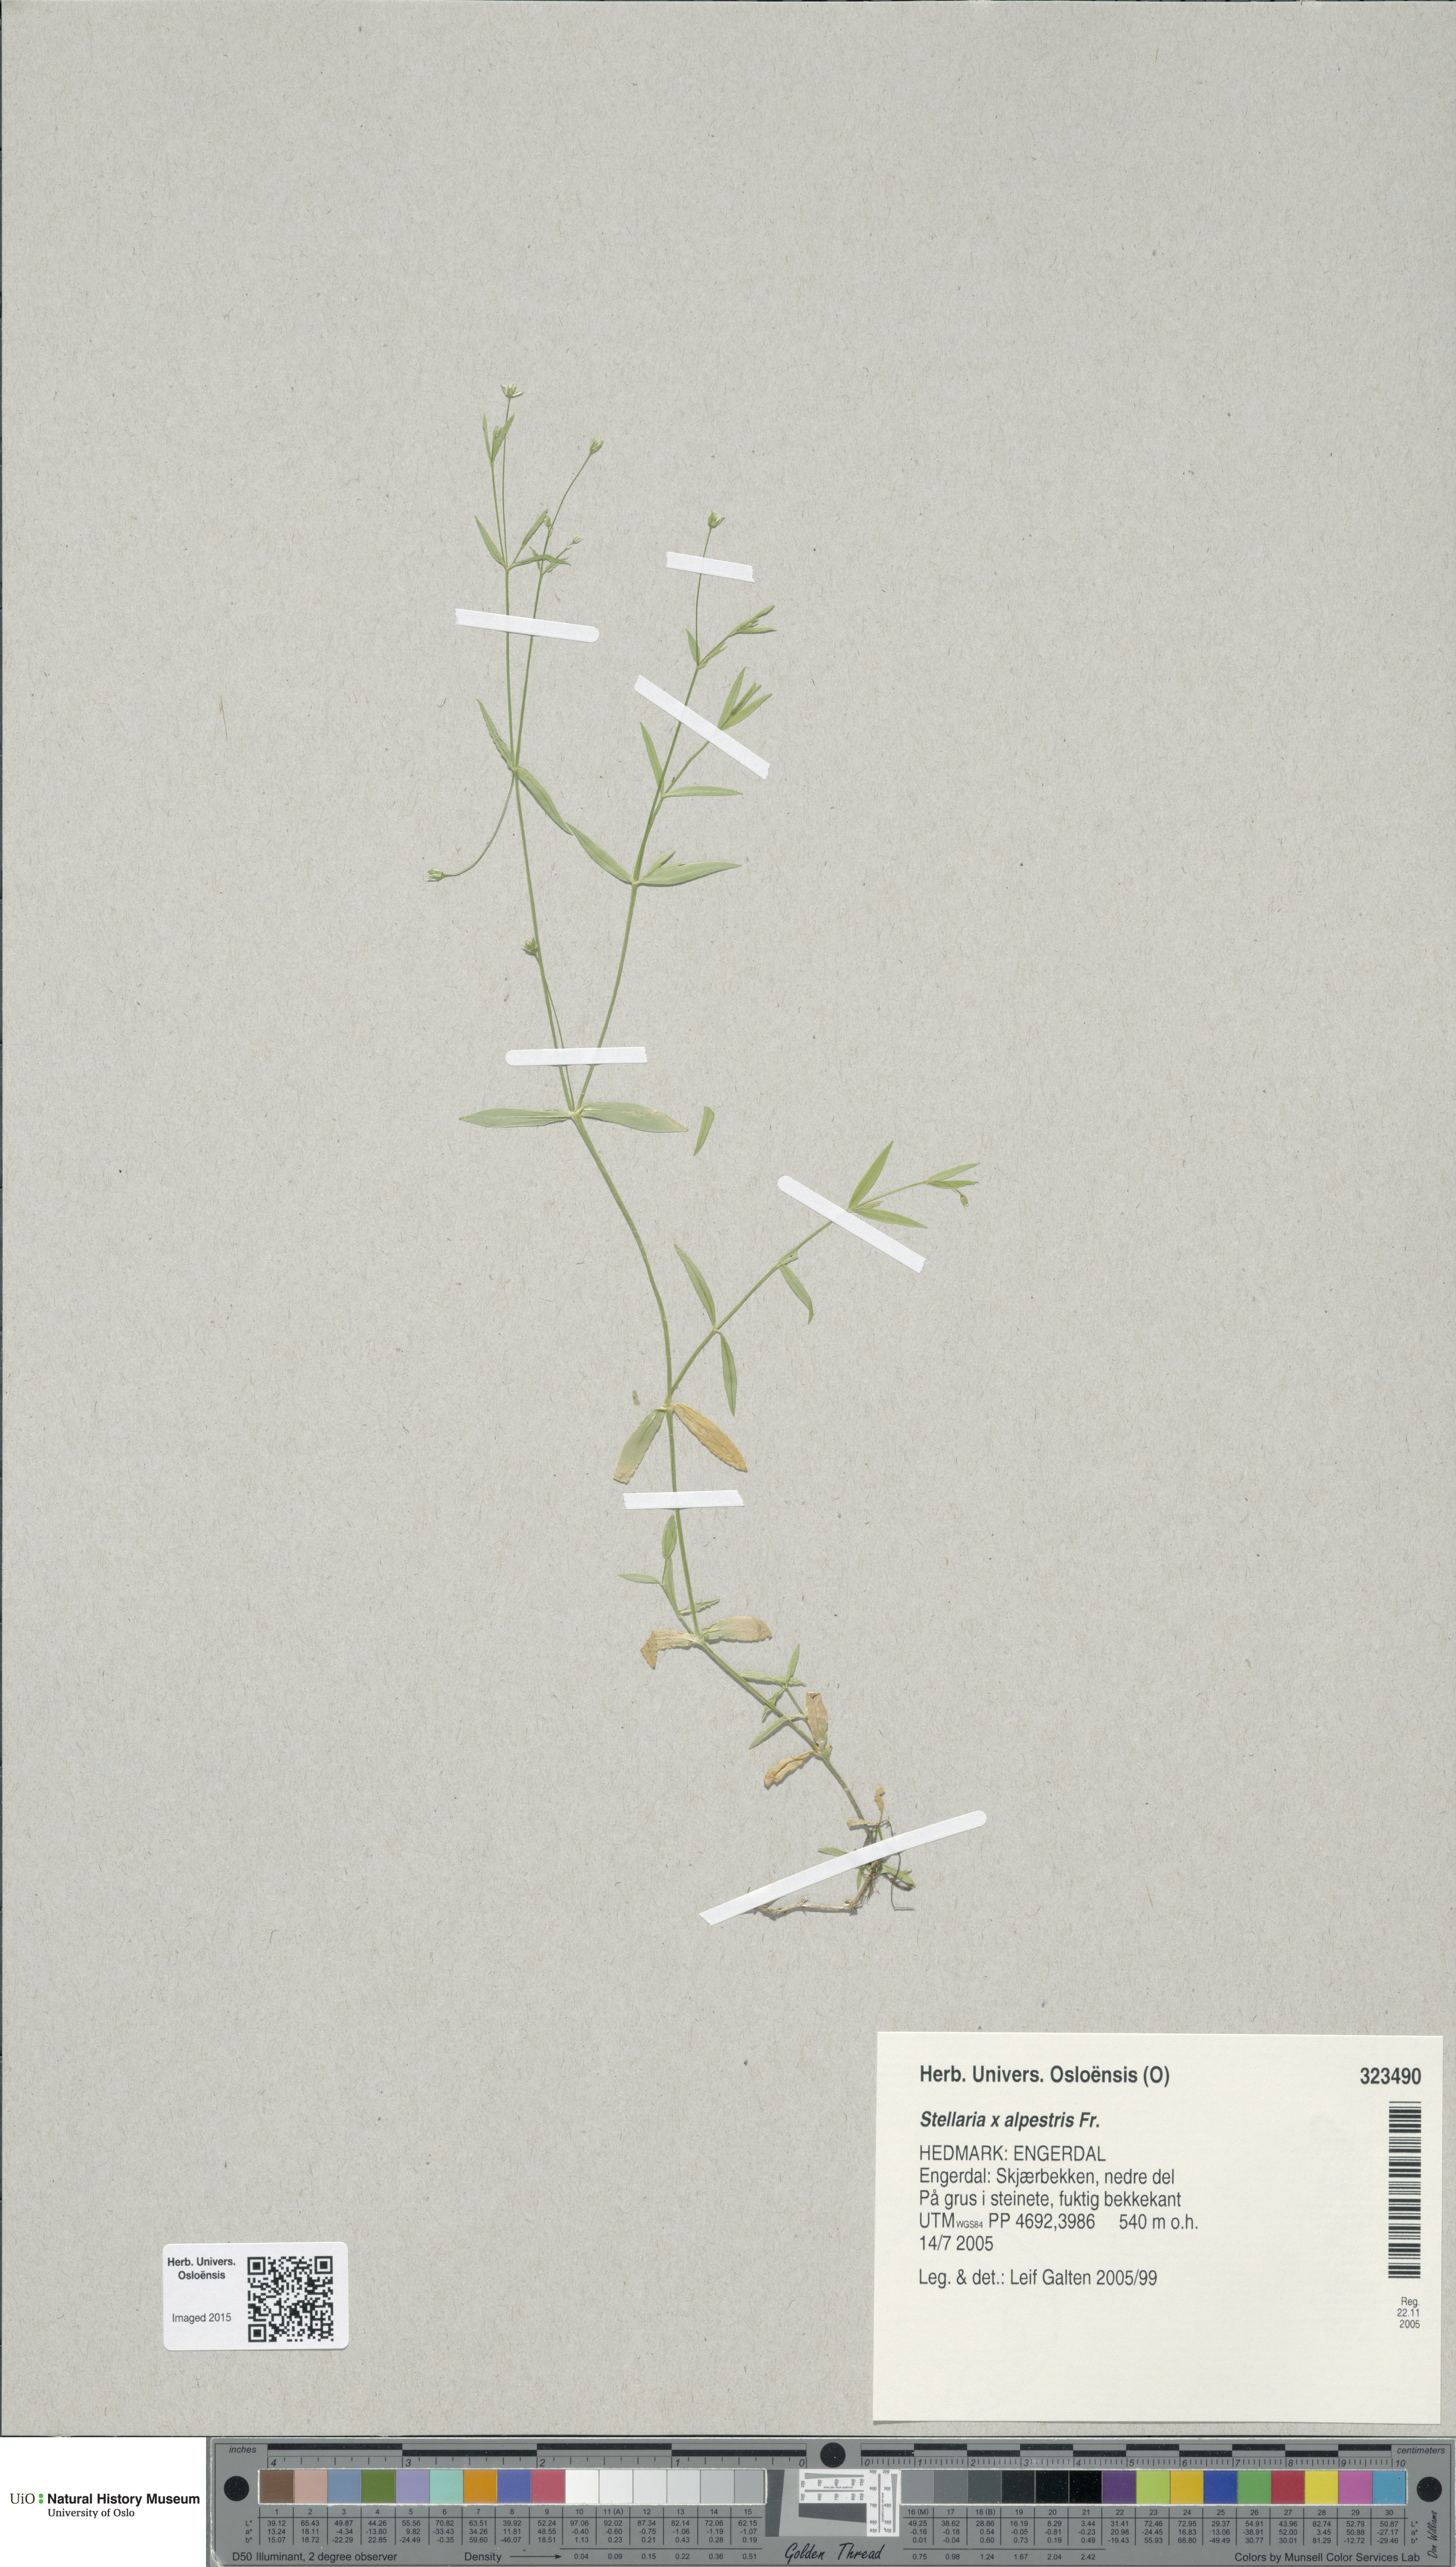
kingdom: Plantae
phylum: Tracheophyta
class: Magnoliopsida
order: Caryophyllales
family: Caryophyllaceae
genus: Stellaria
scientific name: Stellaria alpestris
